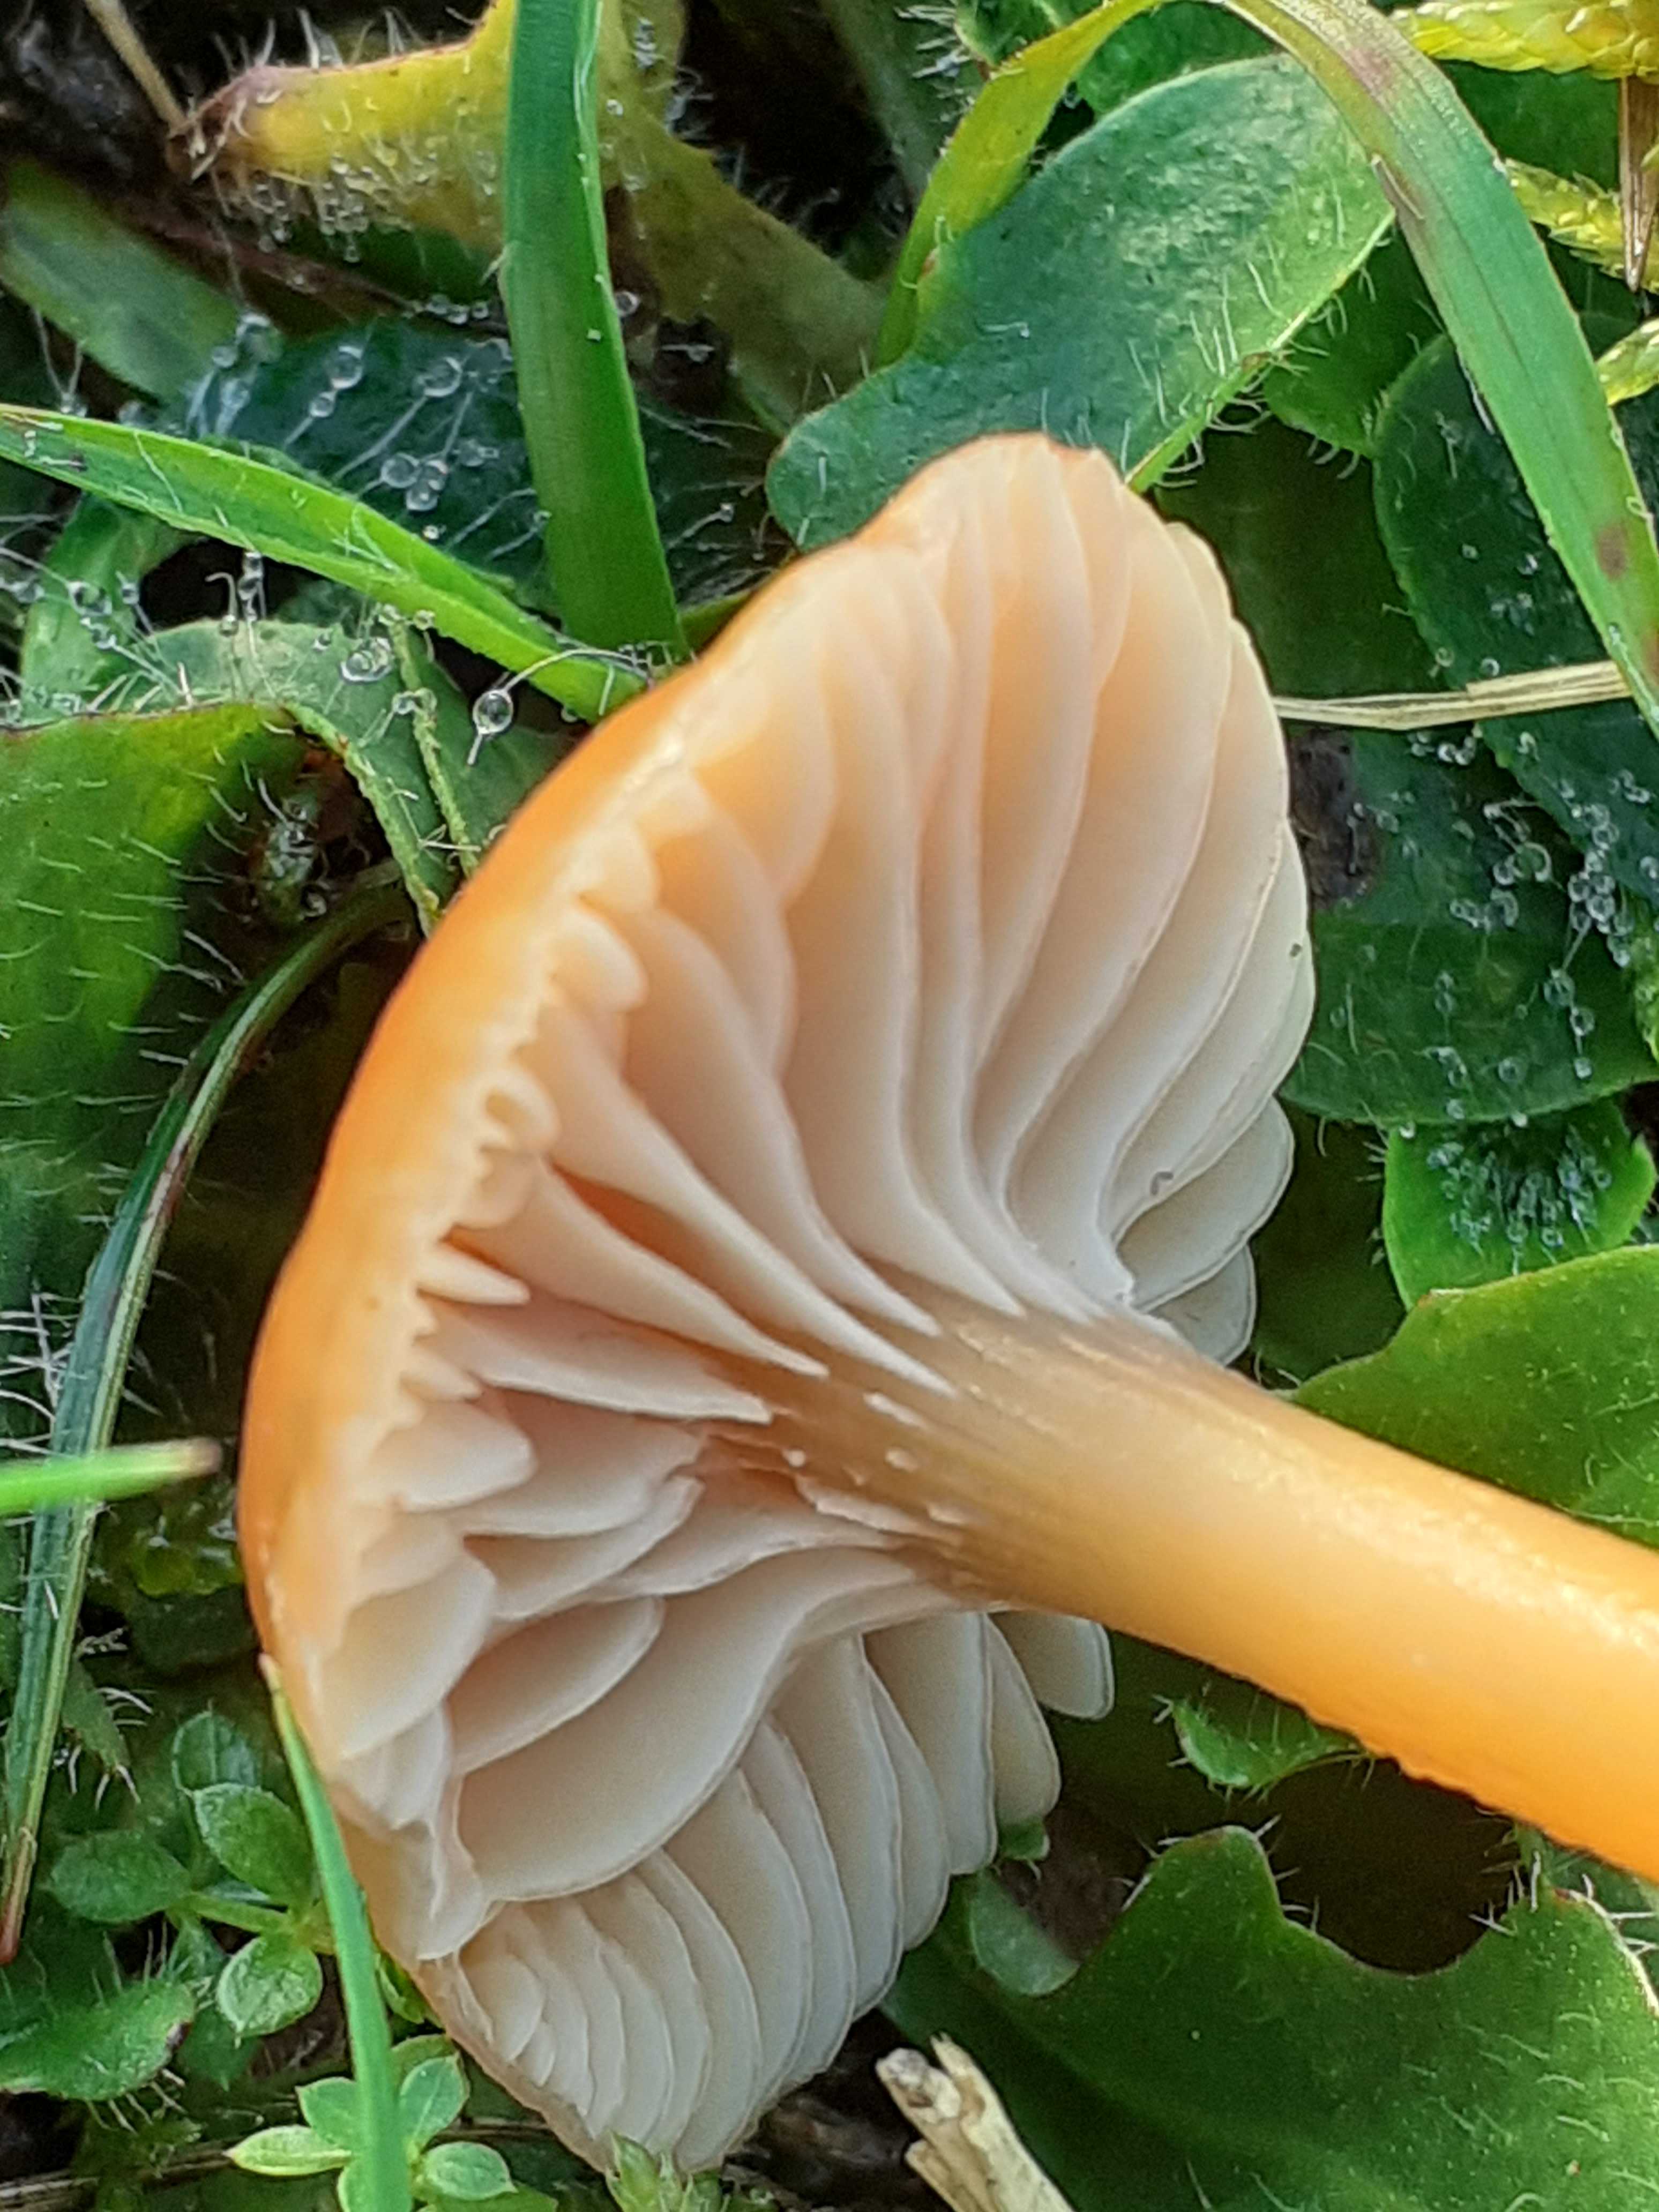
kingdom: Fungi
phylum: Basidiomycota
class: Agaricomycetes
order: Agaricales
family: Hygrophoraceae
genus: Gliophorus
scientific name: Gliophorus laetus
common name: brusk-vokshat
